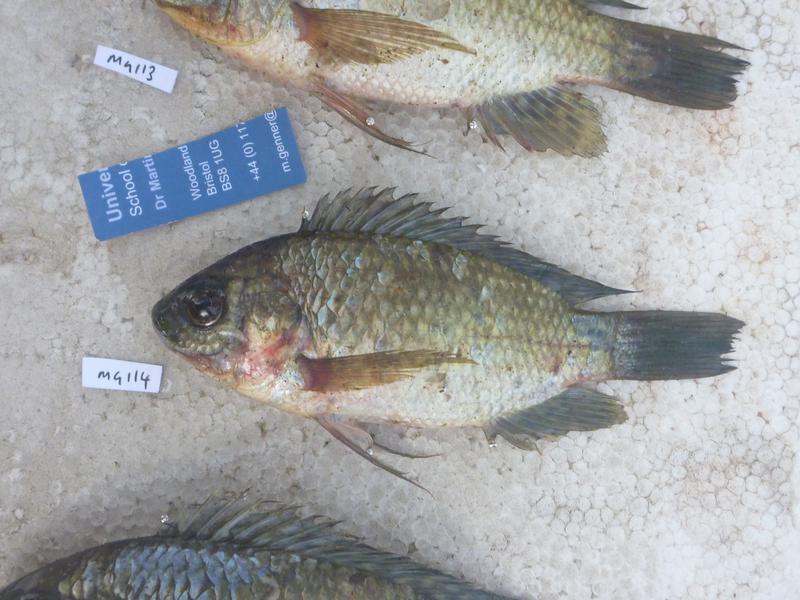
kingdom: Animalia
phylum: Chordata
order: Perciformes
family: Cichlidae
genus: Oreochromis
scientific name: Oreochromis leucostictus
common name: Blue spotted tilapia
